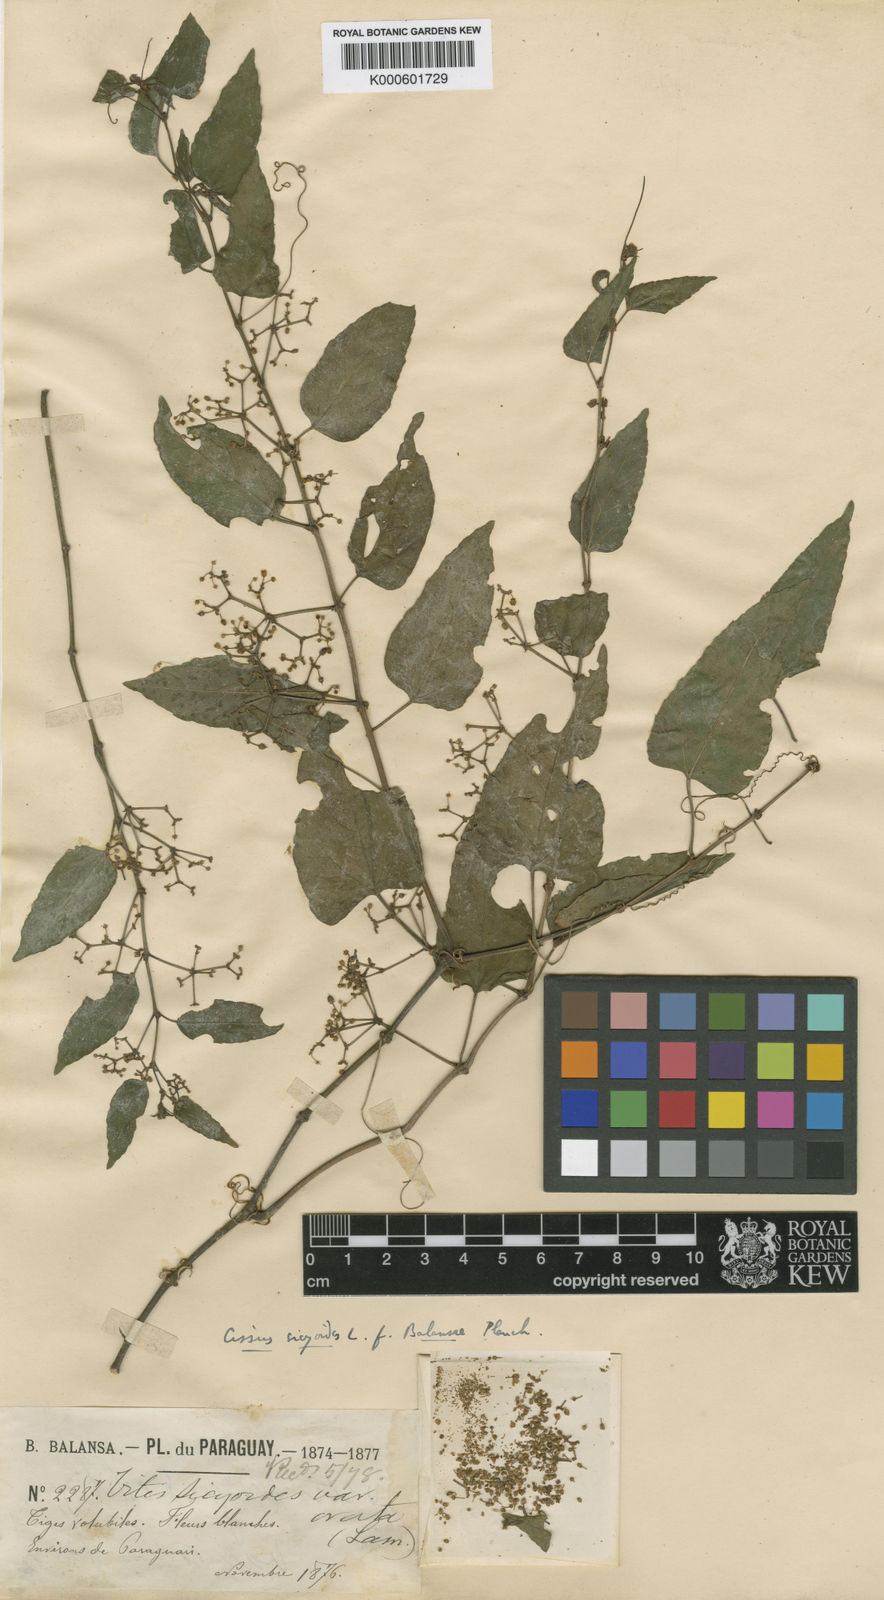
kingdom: Plantae
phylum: Tracheophyta
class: Magnoliopsida
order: Vitales
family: Vitaceae
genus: Cissus
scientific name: Cissus verticillata
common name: Princess vine
